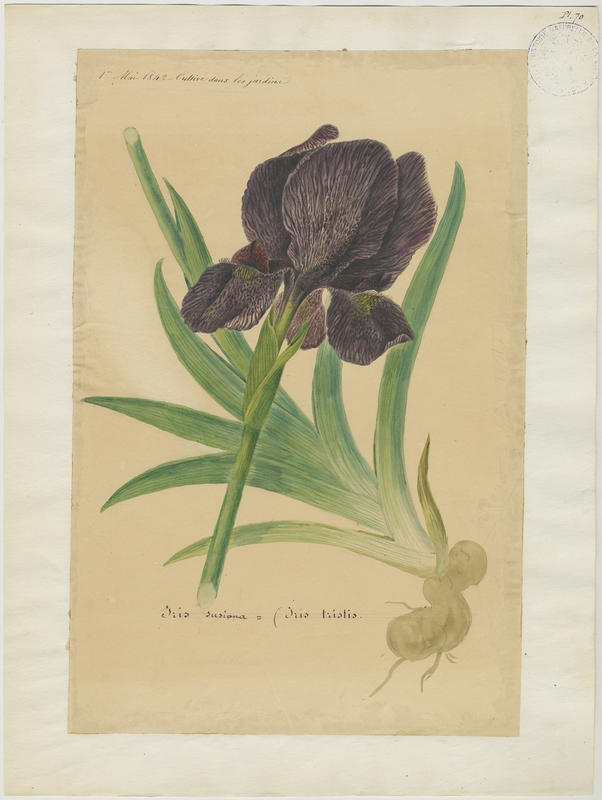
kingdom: Plantae
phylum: Tracheophyta
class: Liliopsida
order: Asparagales
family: Iridaceae
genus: Iris
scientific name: Iris susiana
